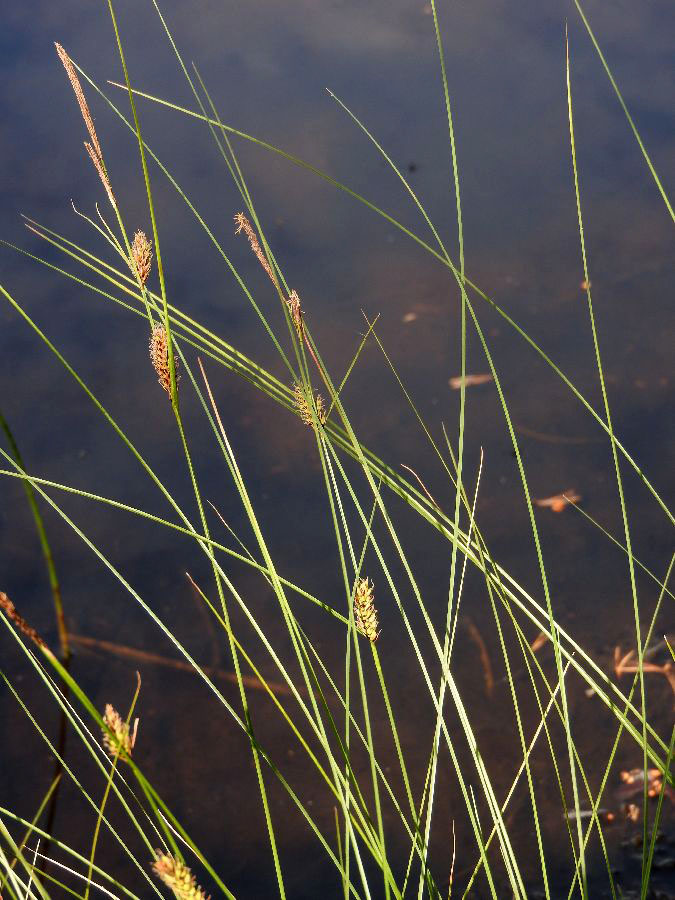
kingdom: Plantae
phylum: Tracheophyta
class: Liliopsida
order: Poales
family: Cyperaceae
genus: Carex
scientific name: Carex lasiocarpa
